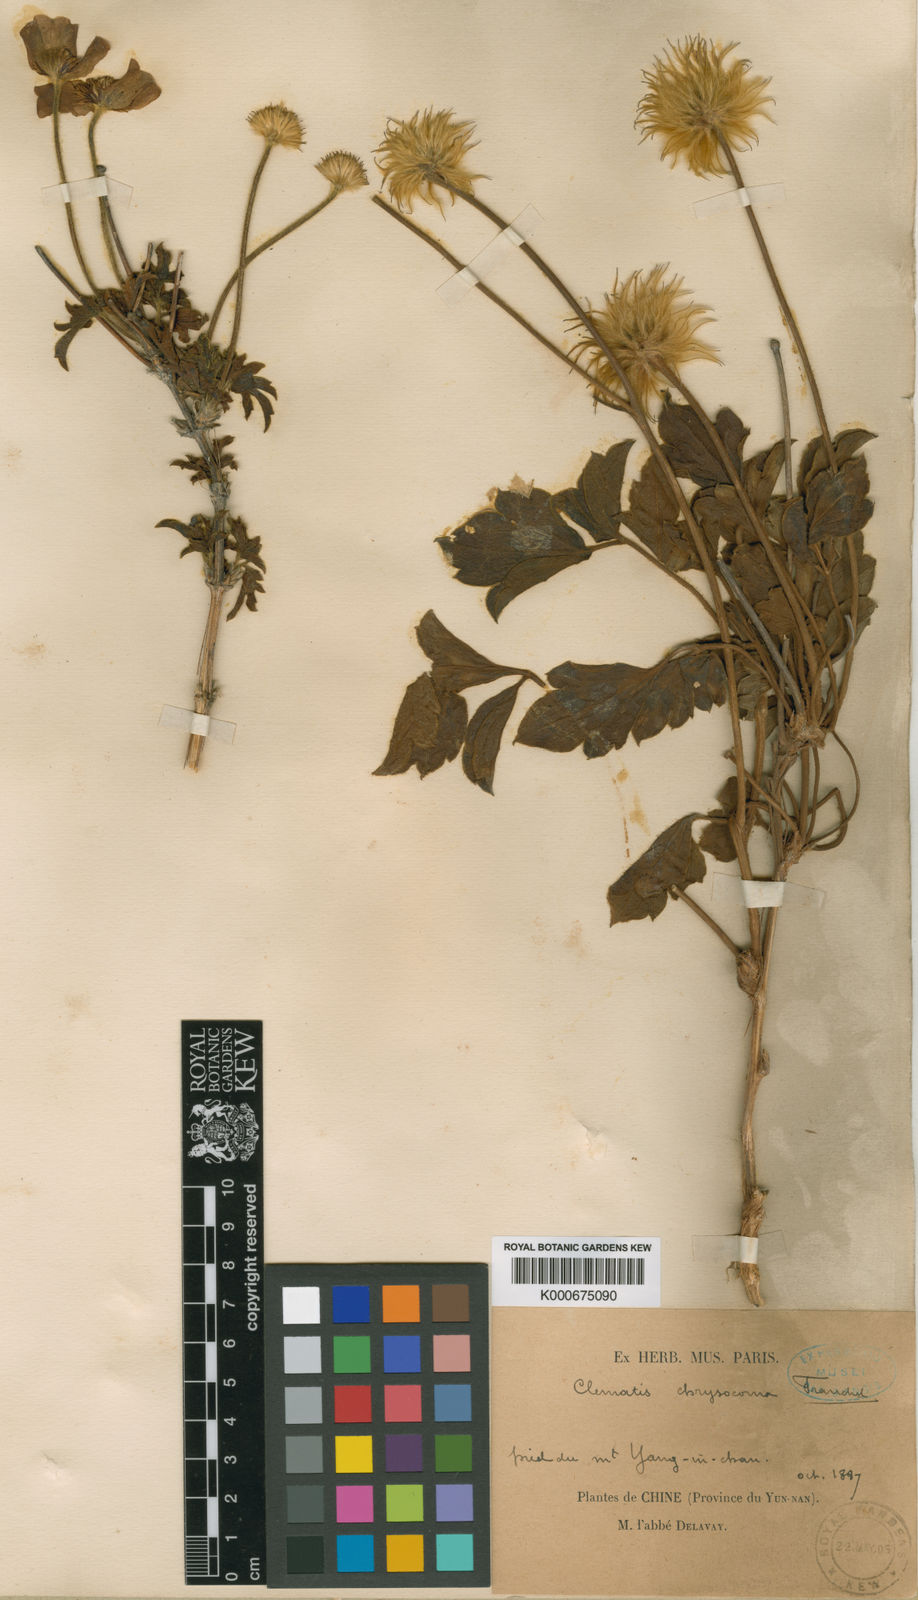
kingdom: Plantae
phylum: Tracheophyta
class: Magnoliopsida
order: Ranunculales
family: Ranunculaceae
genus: Clematis
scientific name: Clematis chrysocoma
